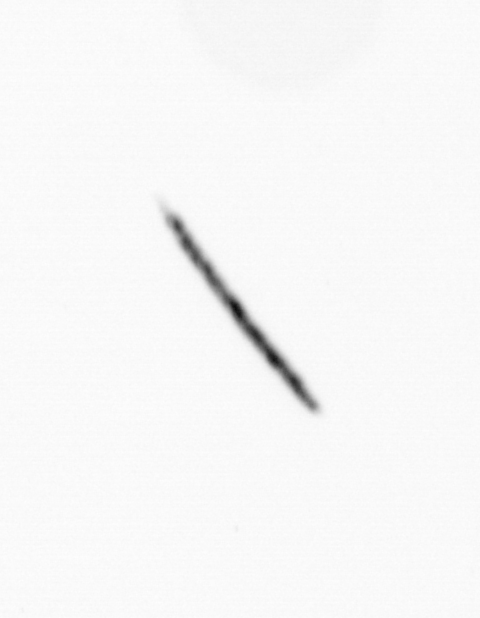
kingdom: Bacteria
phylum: Cyanobacteria
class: Cyanobacteriia
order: Cyanobacteriales
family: Microcoleaceae
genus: Trichodesmium
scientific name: Trichodesmium
